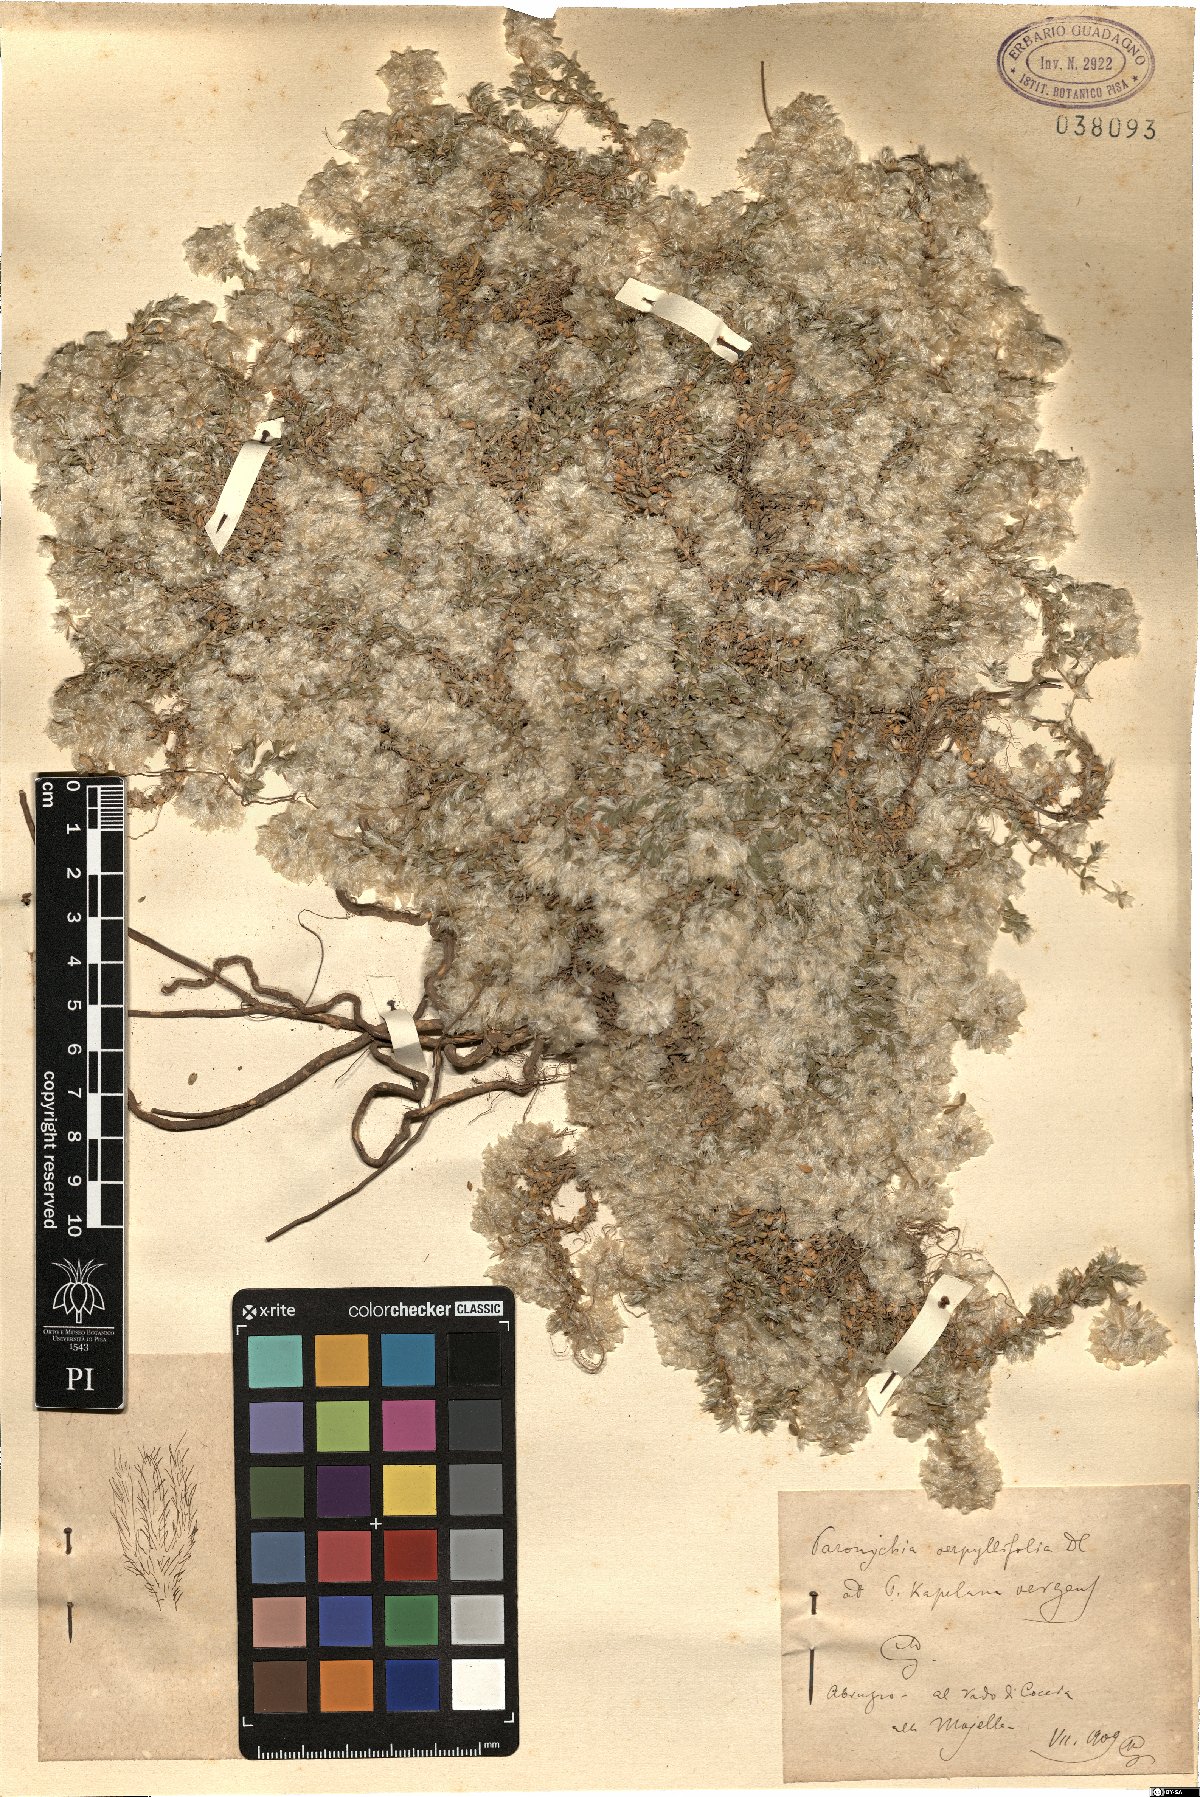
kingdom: Plantae
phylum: Tracheophyta
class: Magnoliopsida
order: Caryophyllales
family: Caryophyllaceae
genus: Paronychia
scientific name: Paronychia kapela
